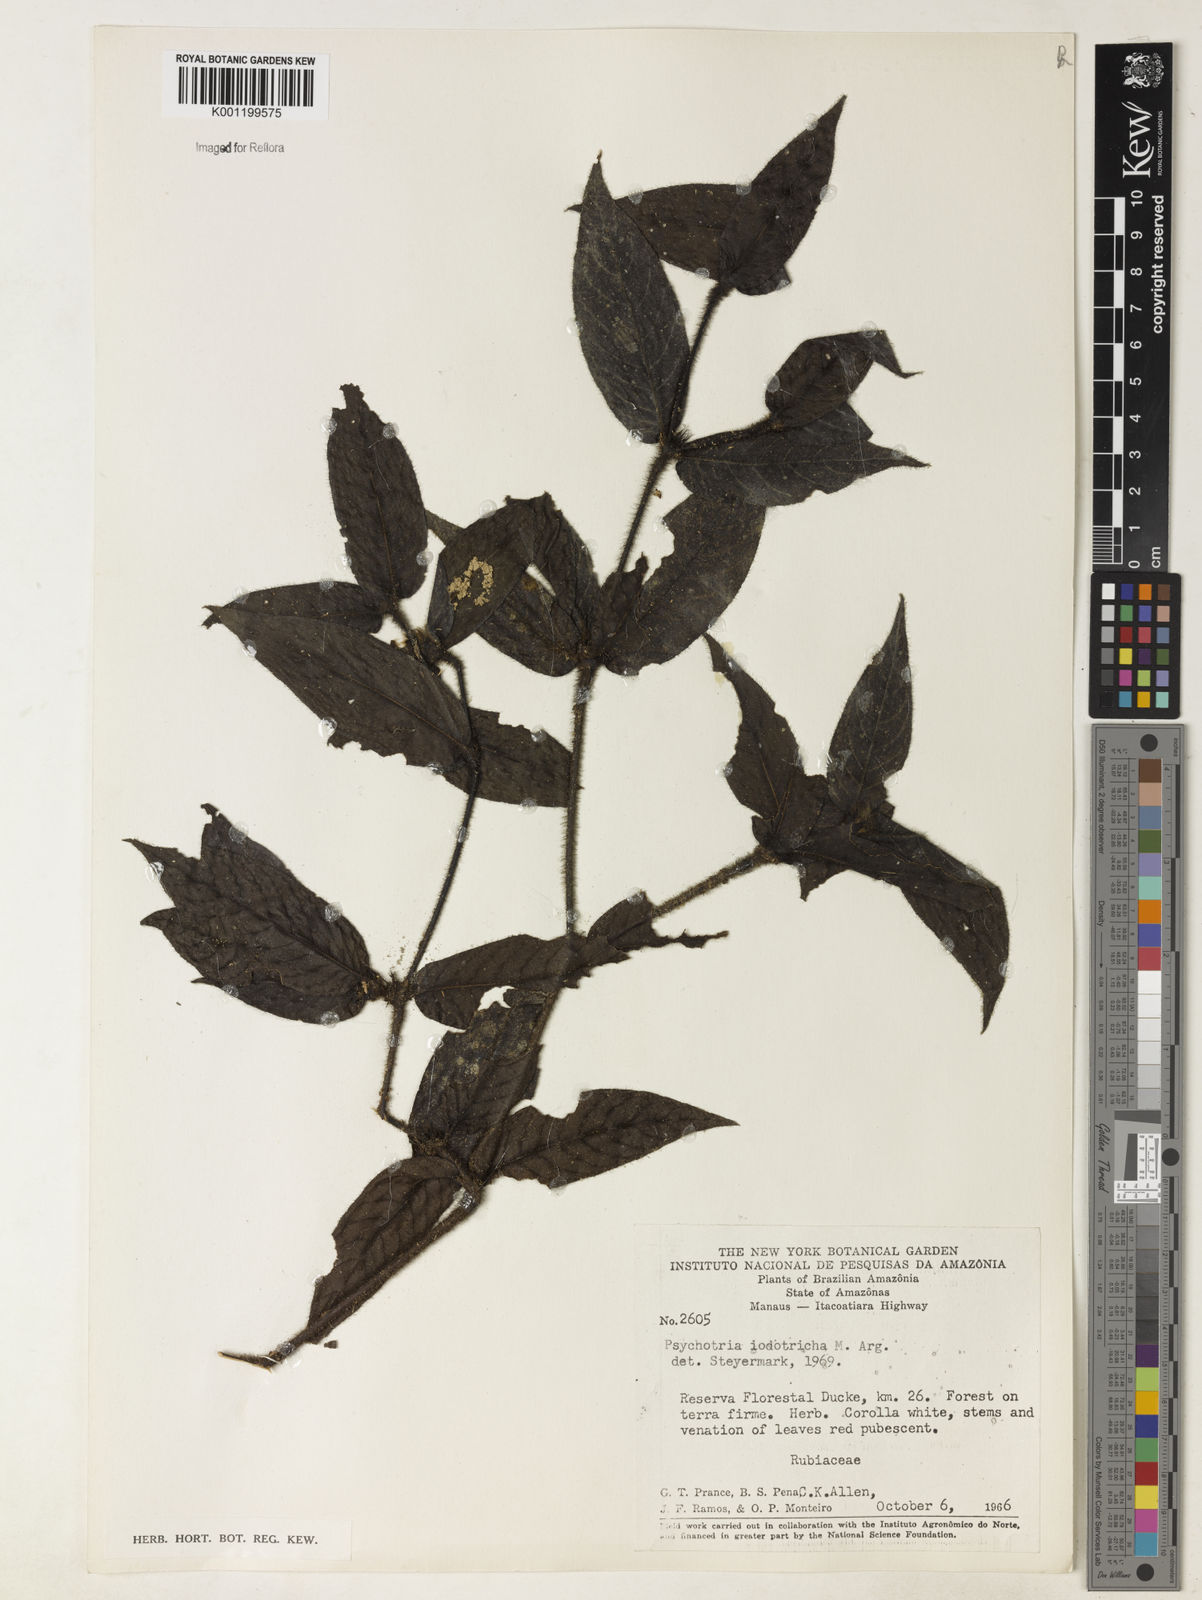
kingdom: Plantae
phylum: Tracheophyta
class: Magnoliopsida
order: Gentianales
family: Rubiaceae
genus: Psychotria
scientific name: Psychotria
